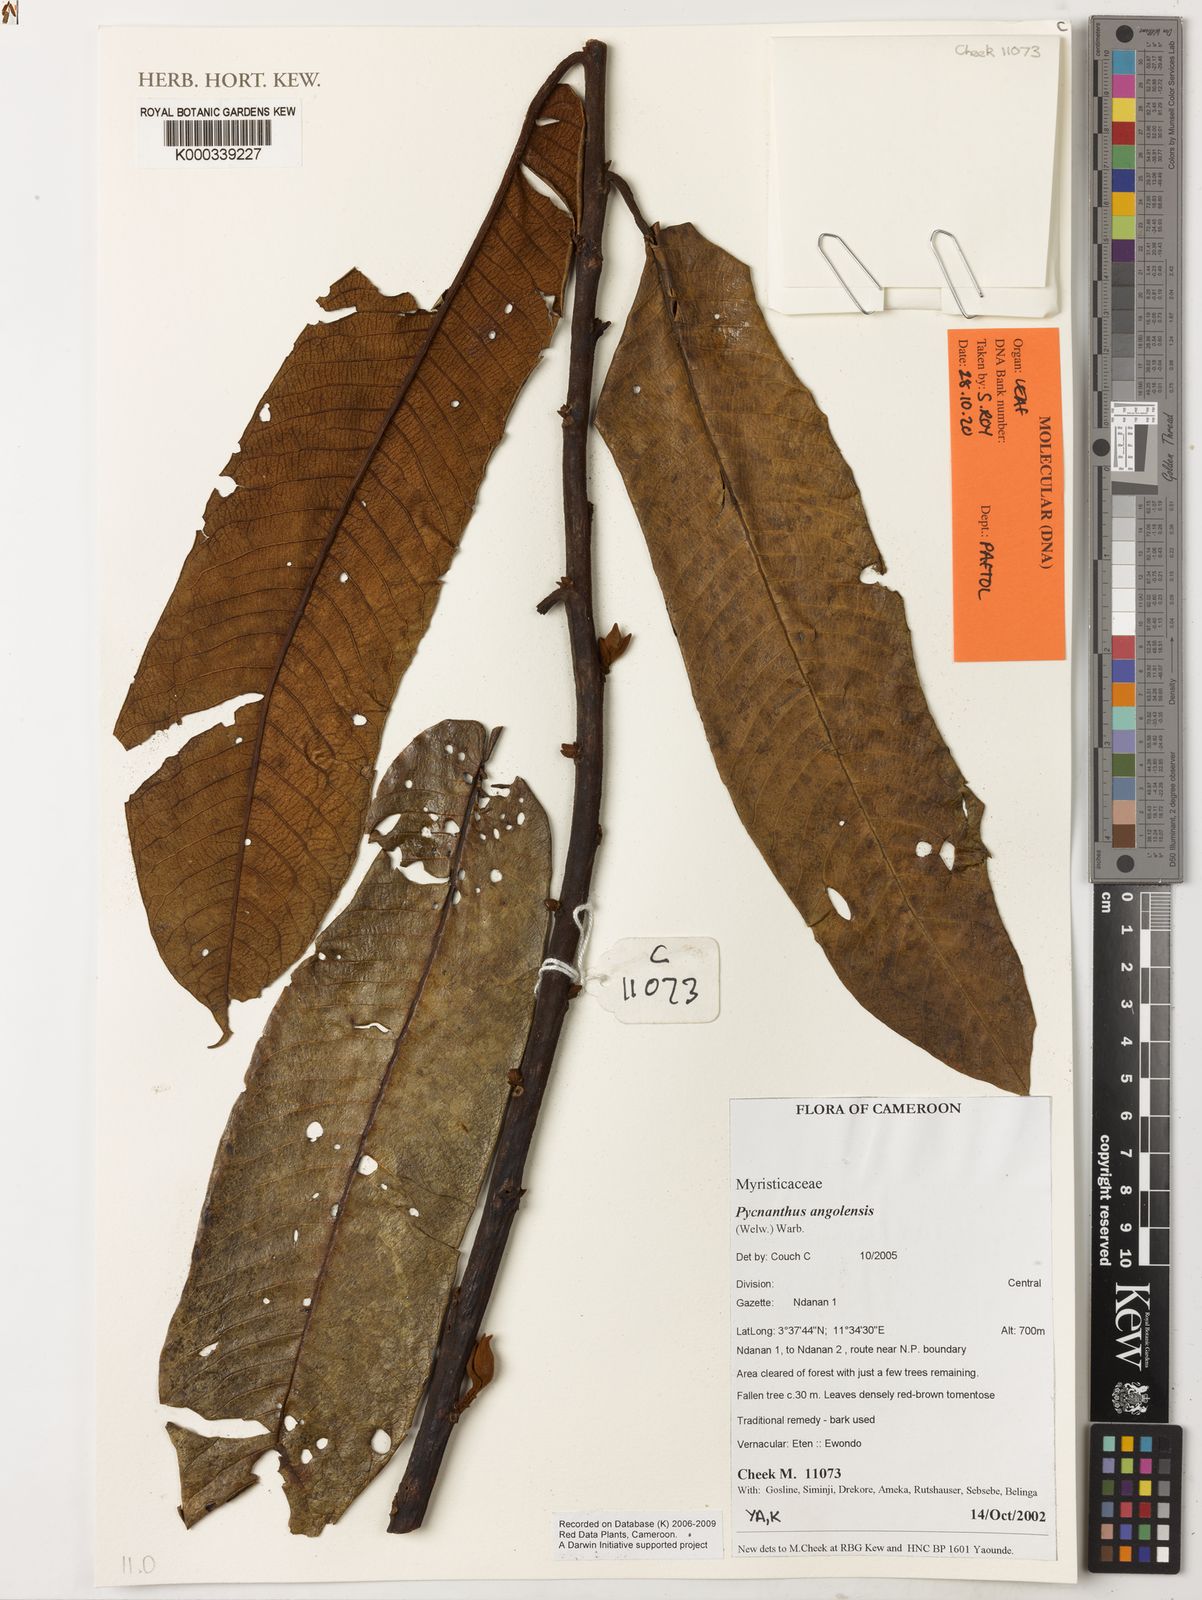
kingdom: Plantae
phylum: Tracheophyta
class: Magnoliopsida
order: Magnoliales
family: Myristicaceae
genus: Pycnanthus
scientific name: Pycnanthus angolensis
